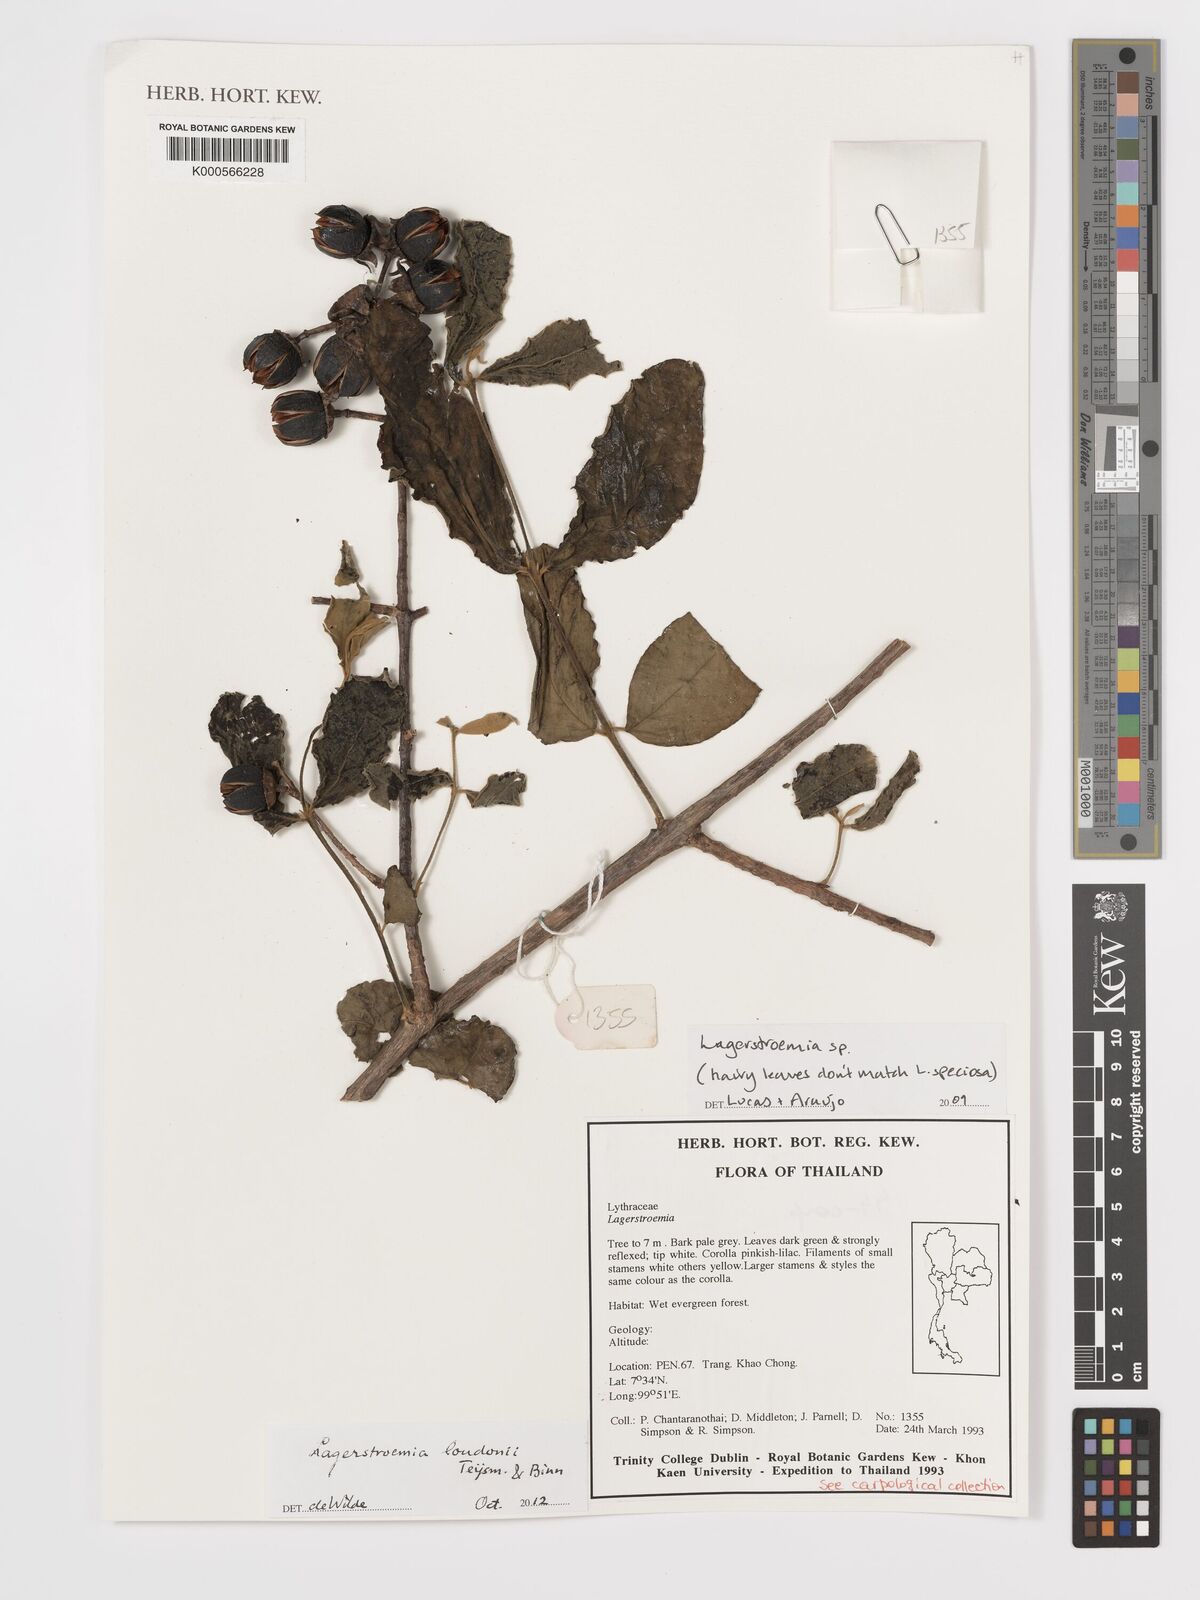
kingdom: Plantae
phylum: Tracheophyta
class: Magnoliopsida
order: Myrtales
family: Lythraceae
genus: Lagerstroemia
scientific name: Lagerstroemia
